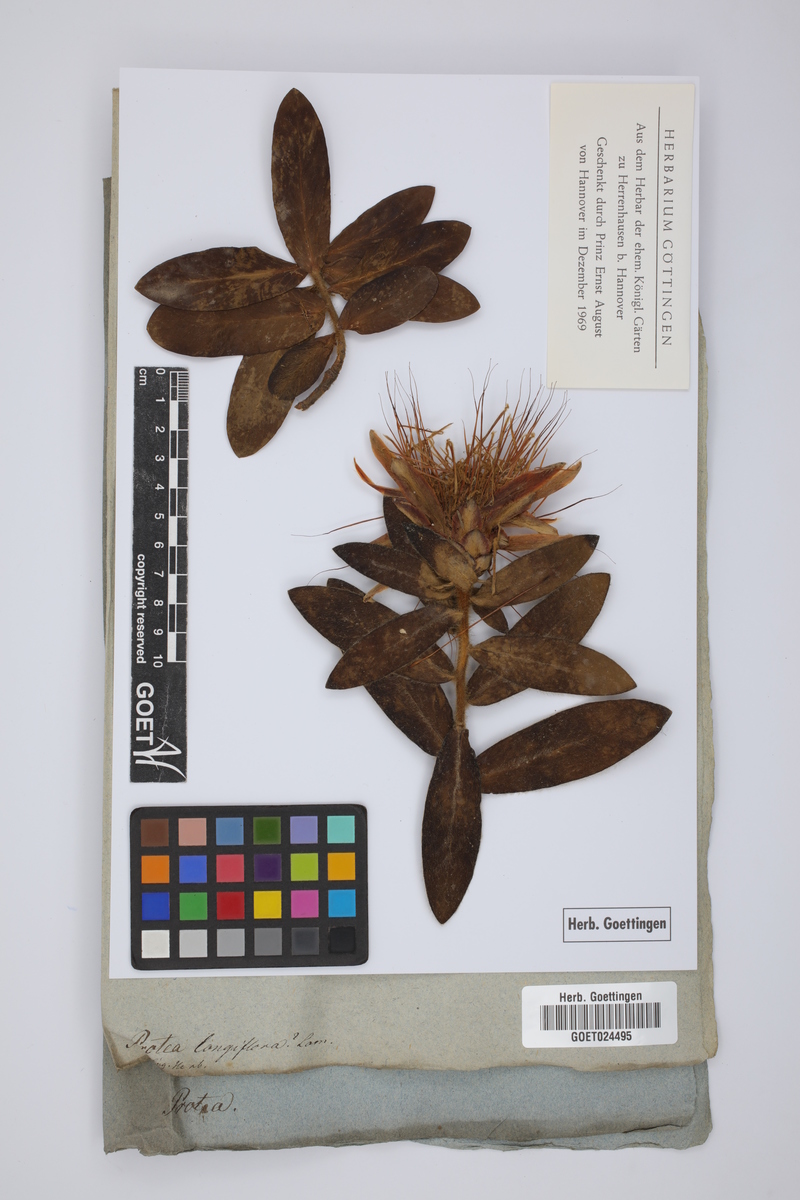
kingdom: Plantae
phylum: Tracheophyta
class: Magnoliopsida
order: Proteales
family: Proteaceae
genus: Protea
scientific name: Protea aurea
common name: Shuttlecock sugarbush
